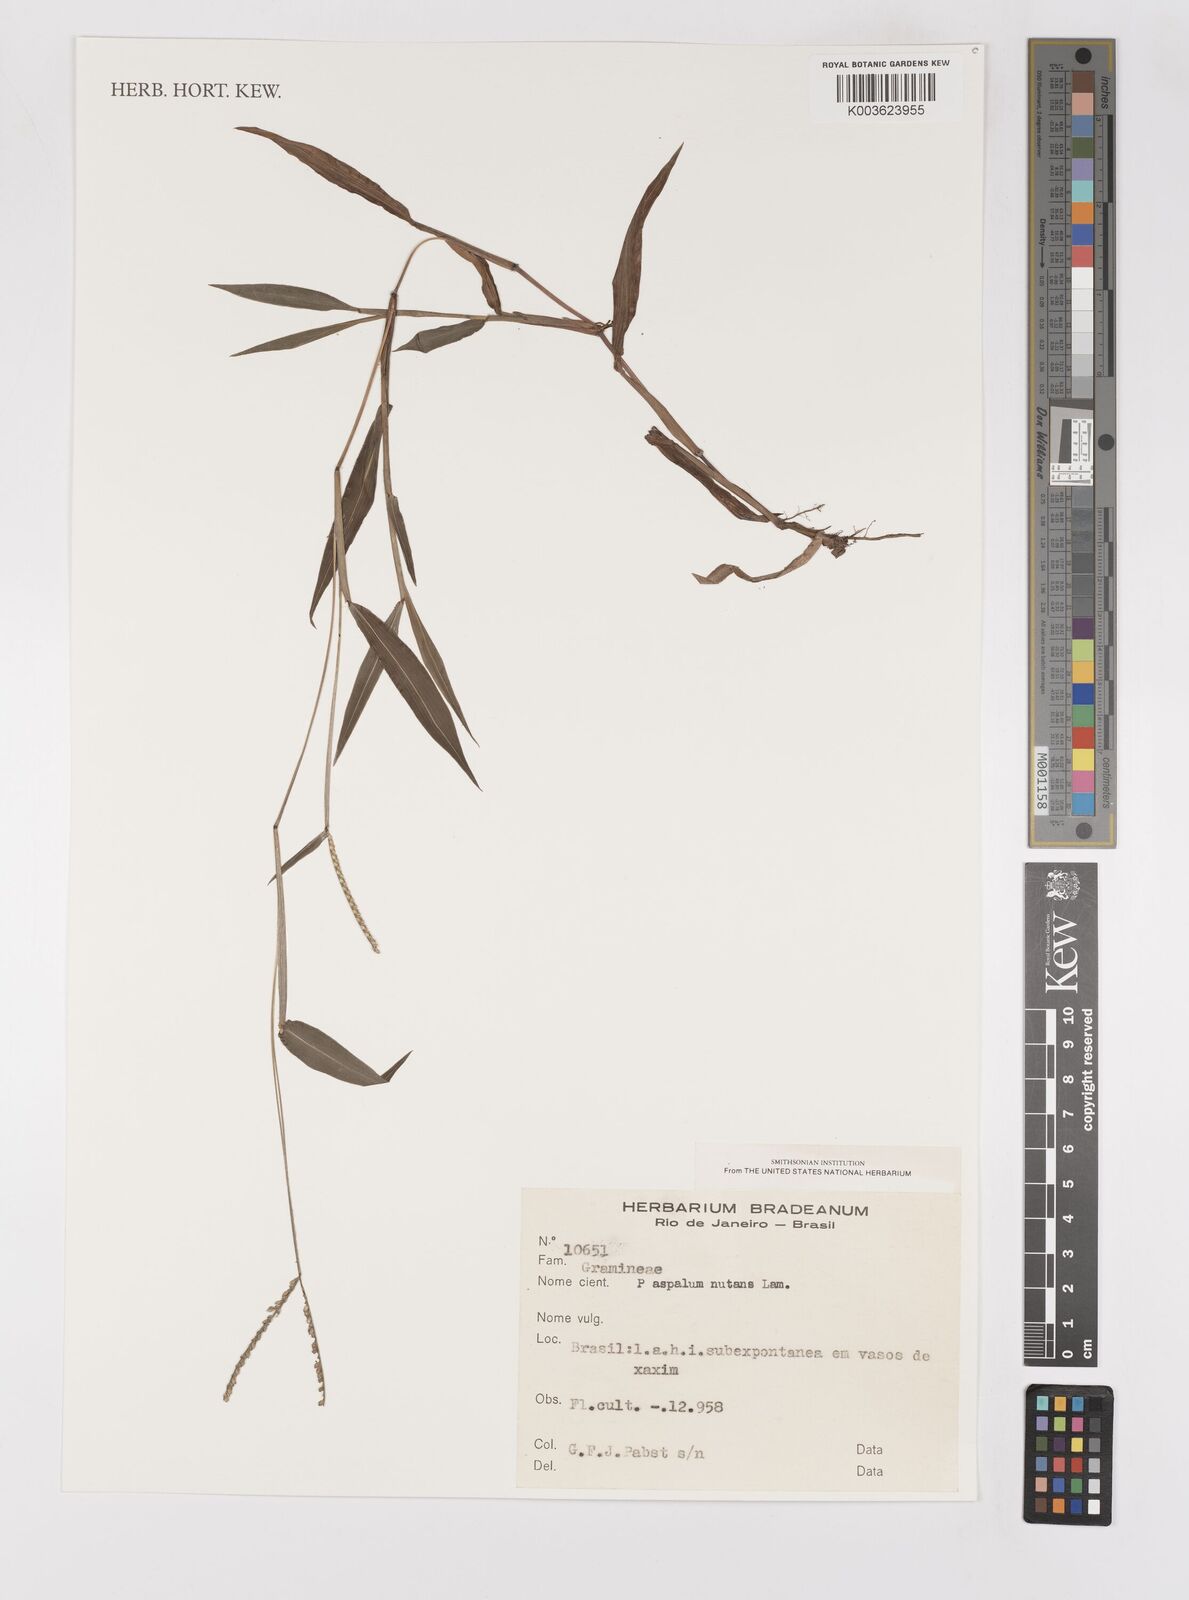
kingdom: Plantae
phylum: Tracheophyta
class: Liliopsida
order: Poales
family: Poaceae
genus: Paspalum
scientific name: Paspalum nutans
